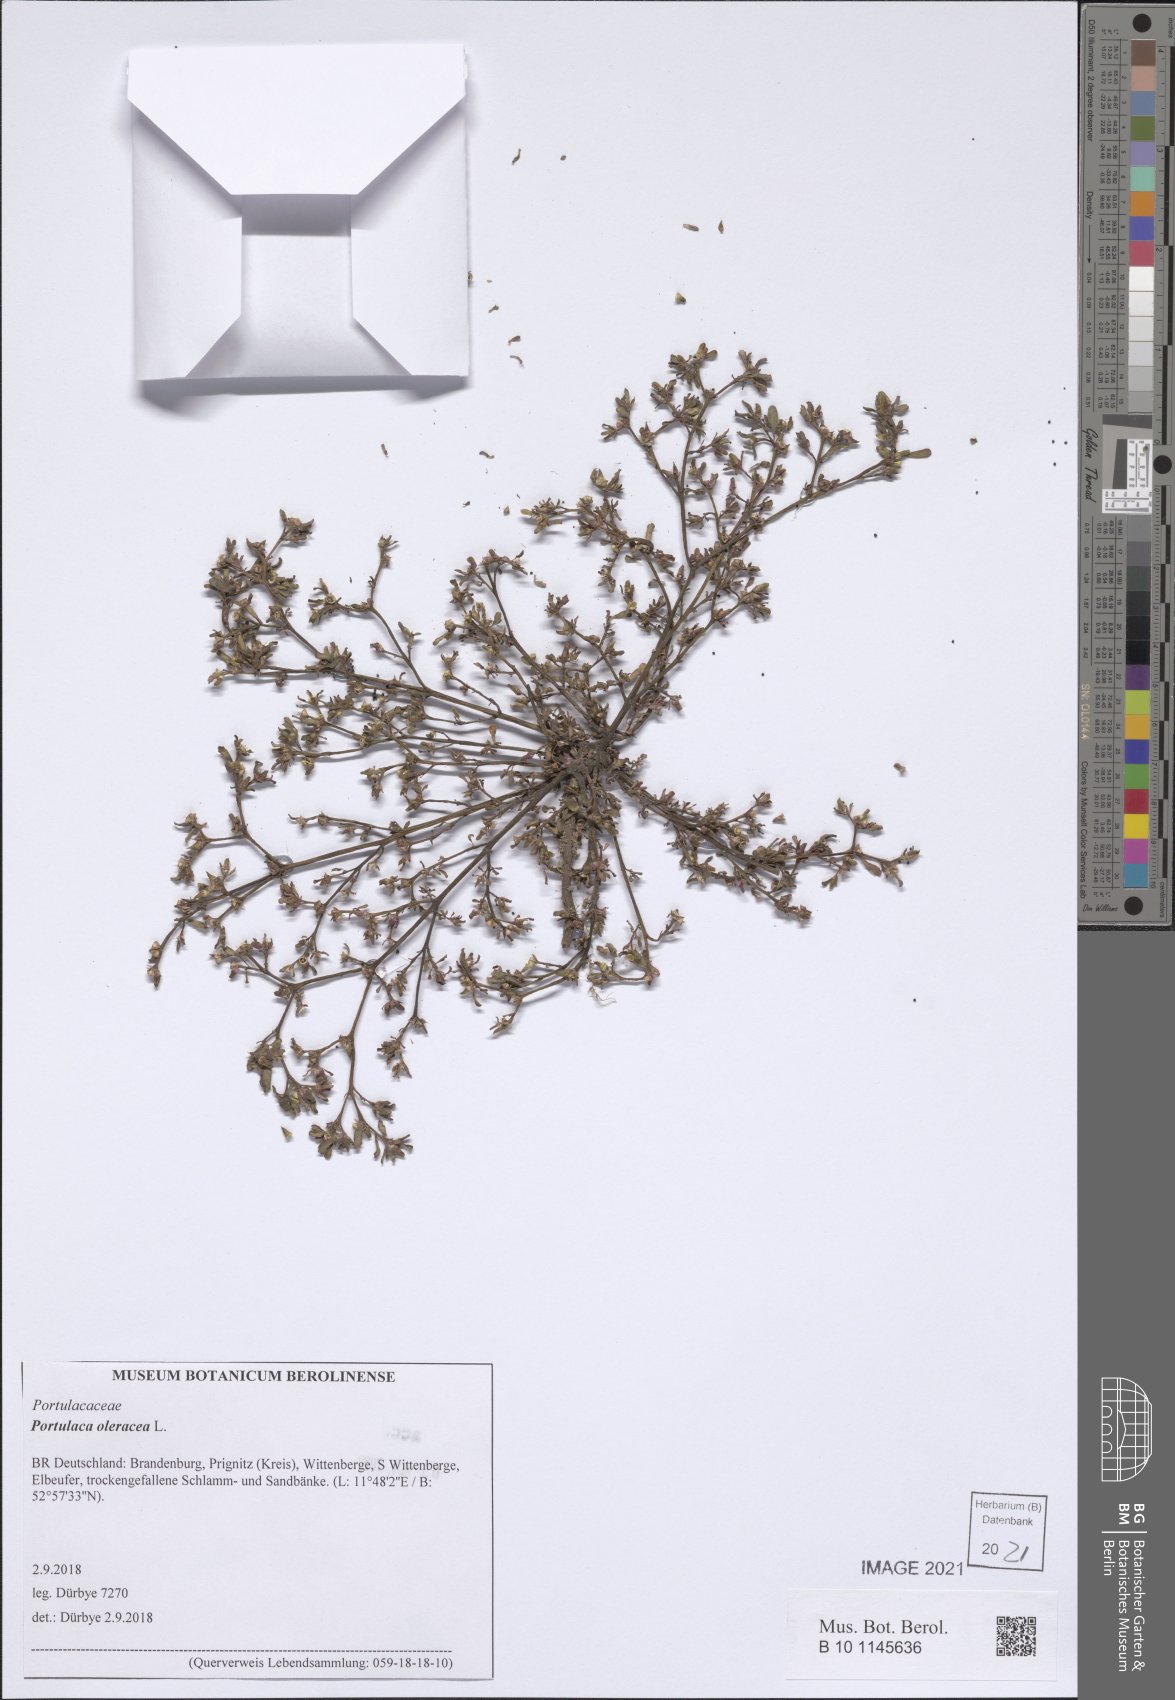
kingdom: Plantae
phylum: Tracheophyta
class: Magnoliopsida
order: Caryophyllales
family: Portulacaceae
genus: Portulaca
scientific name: Portulaca oleracea
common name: Common purslane
